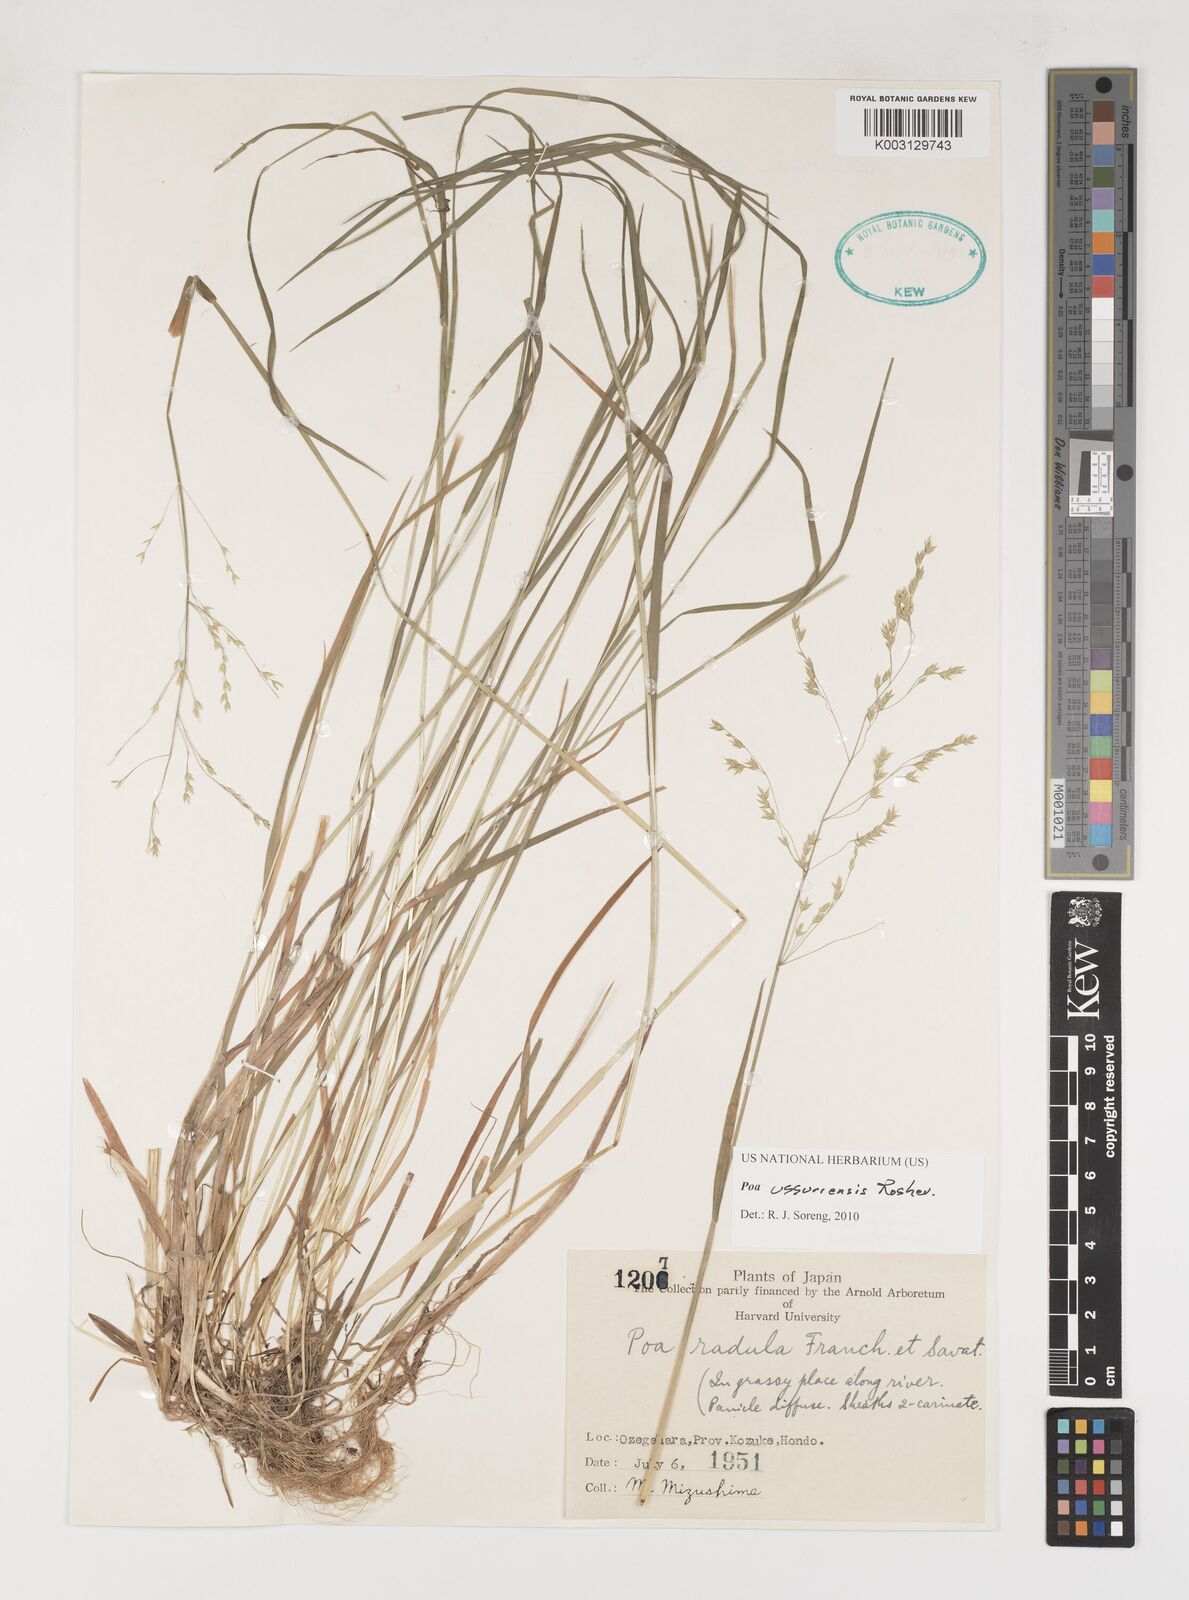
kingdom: Plantae
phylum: Tracheophyta
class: Liliopsida
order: Poales
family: Poaceae
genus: Poa
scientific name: Poa ussuriensis
